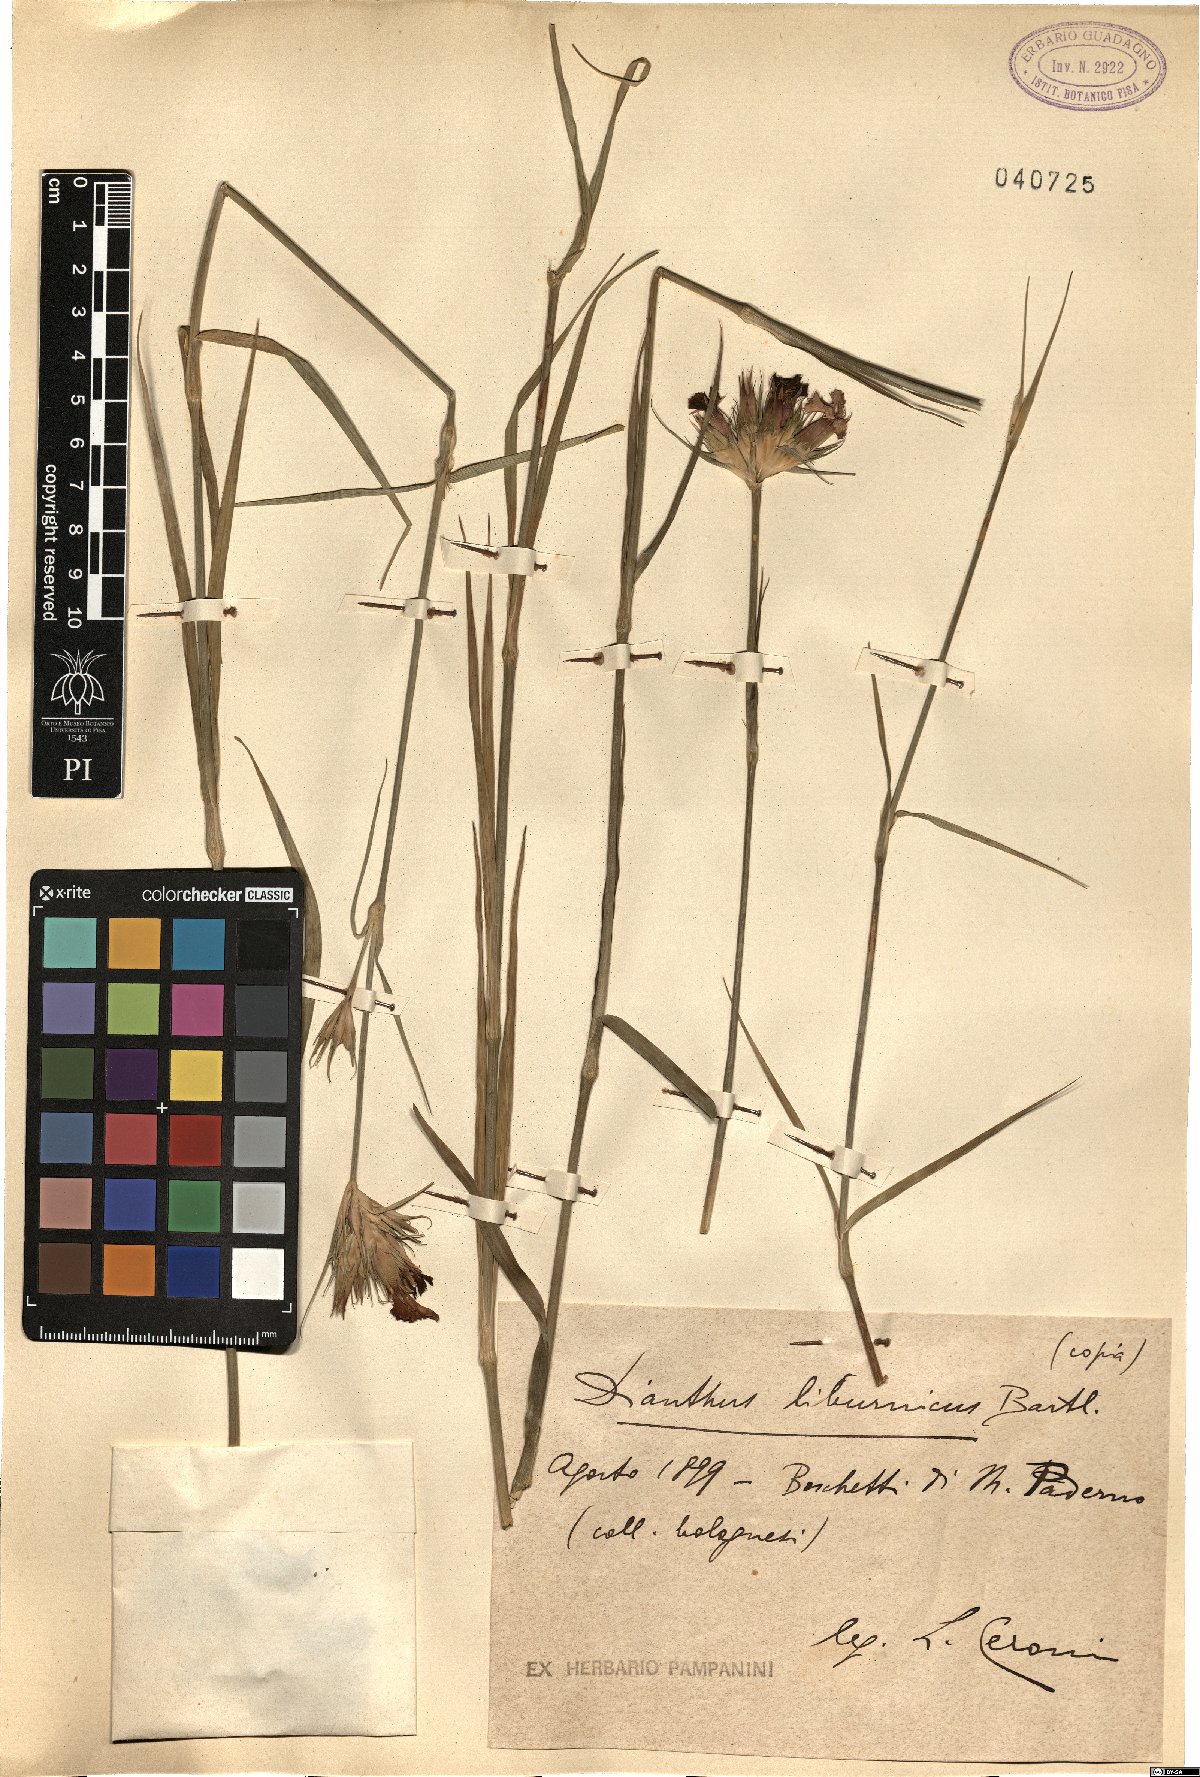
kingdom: Plantae
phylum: Tracheophyta
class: Magnoliopsida
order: Caryophyllales
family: Caryophyllaceae
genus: Dianthus
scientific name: Dianthus balbisii
